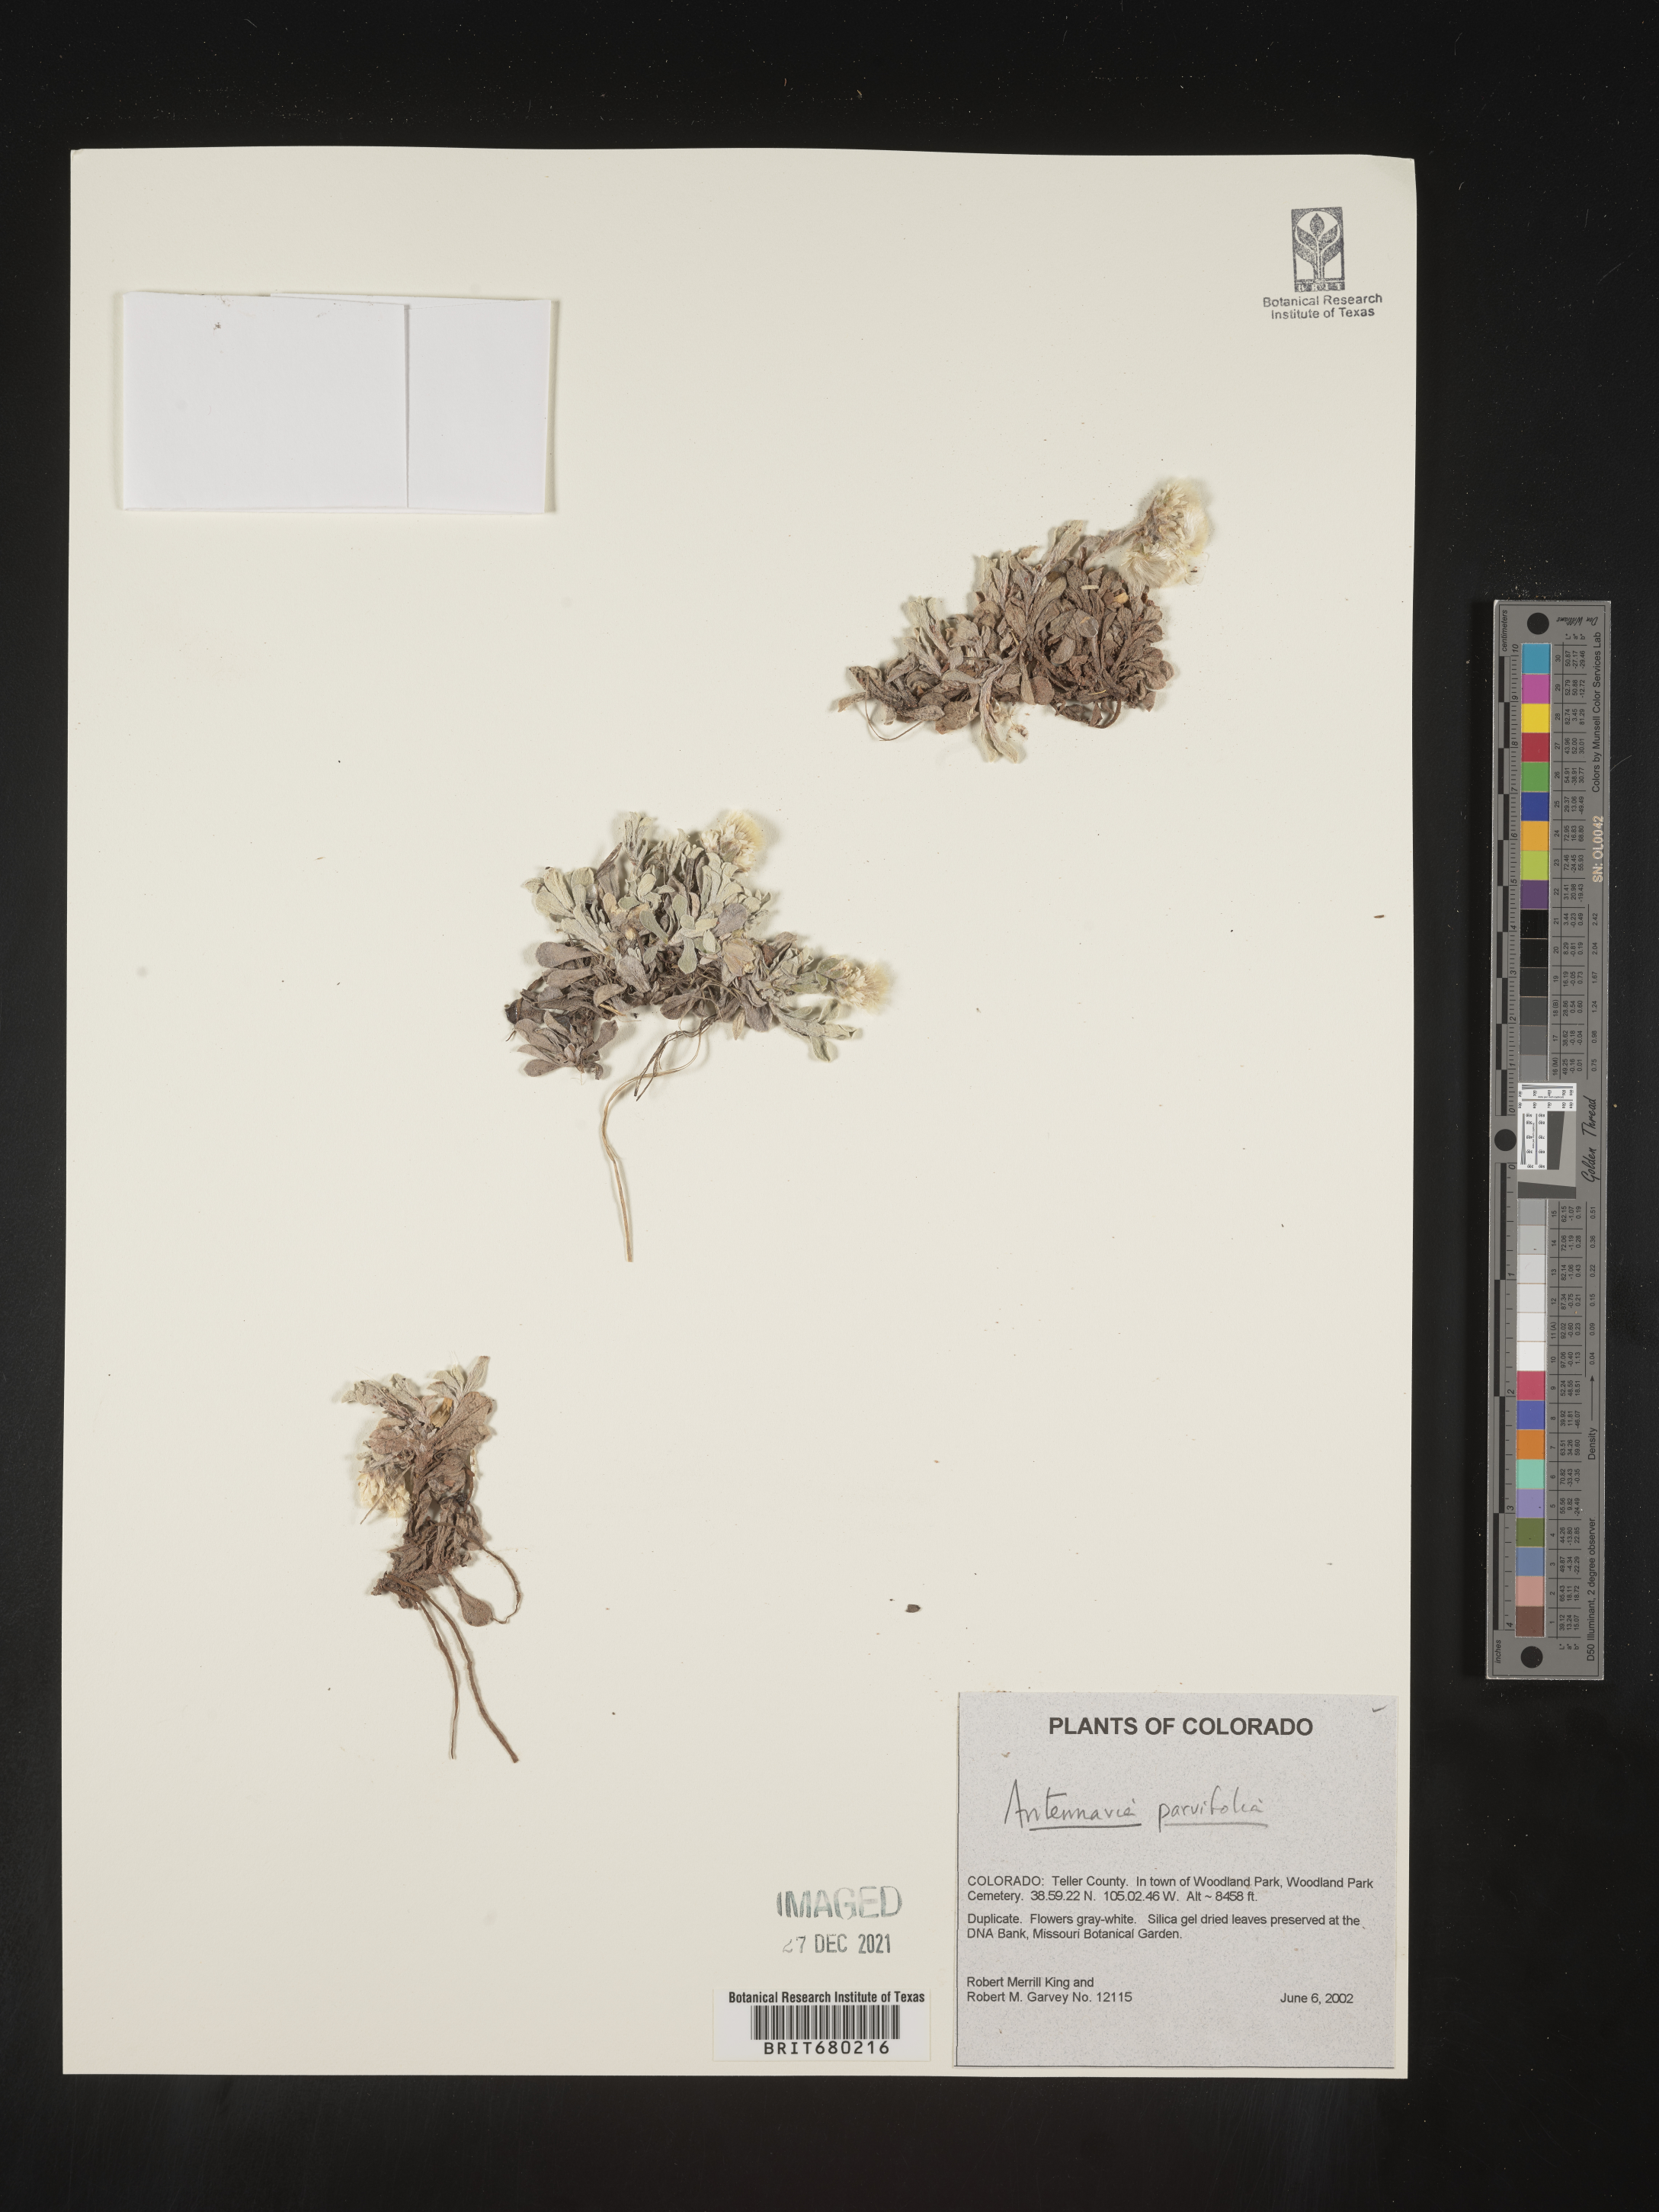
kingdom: Plantae
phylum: Tracheophyta
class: Magnoliopsida
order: Asterales
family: Asteraceae
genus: Antennaria
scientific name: Antennaria plantaginifolia
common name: Plantain-leaved pussytoes
